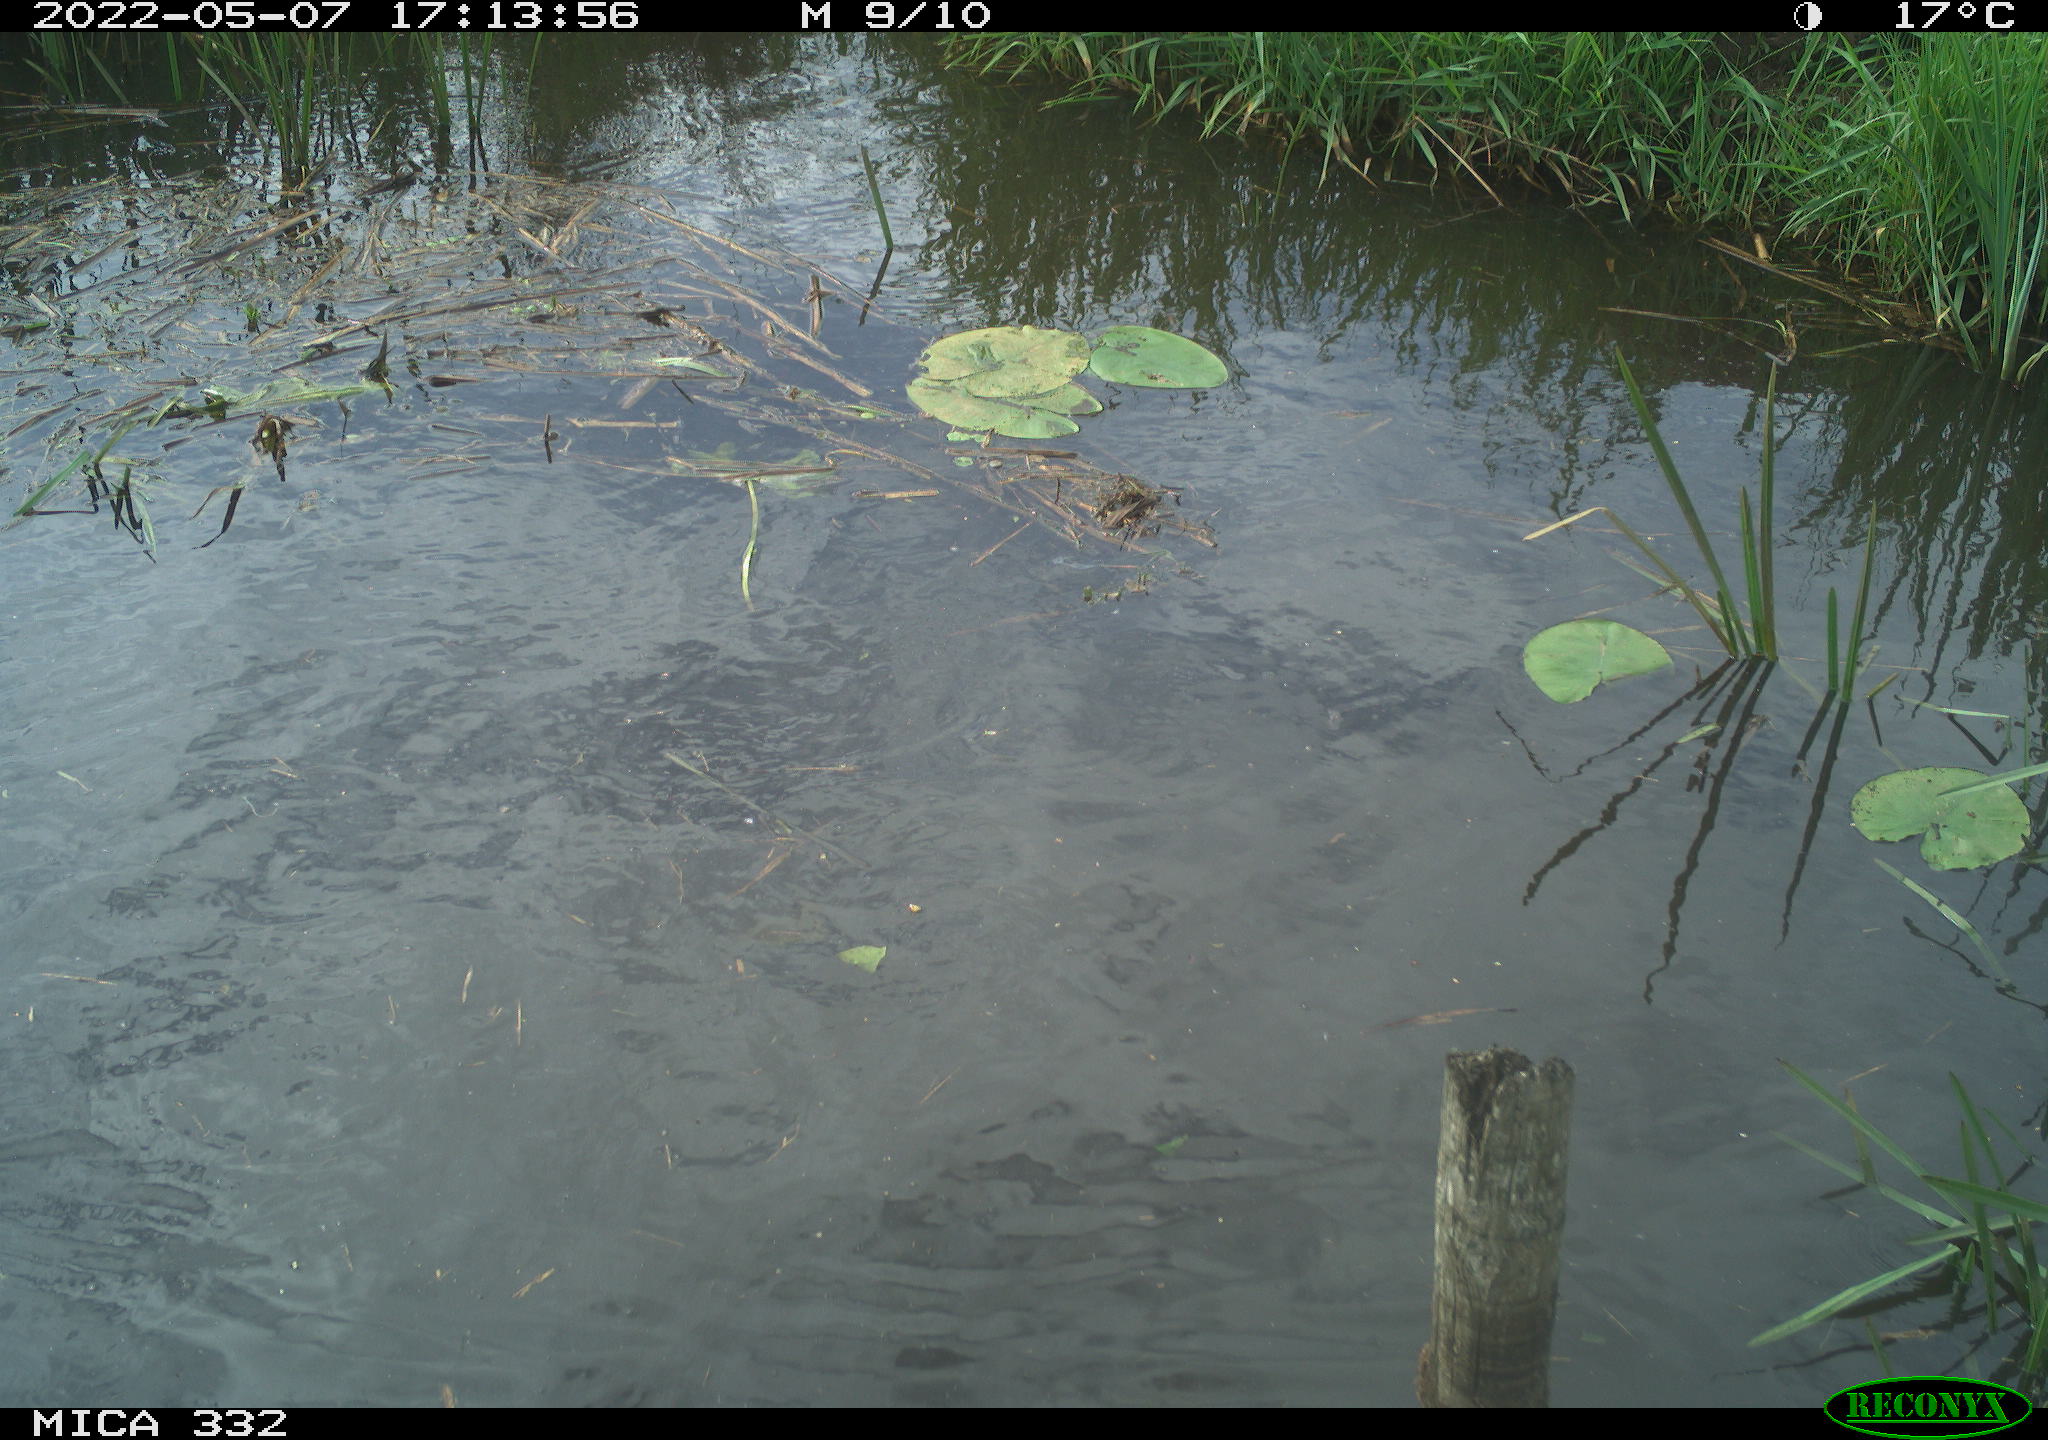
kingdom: Animalia
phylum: Chordata
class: Aves
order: Anseriformes
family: Anatidae
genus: Anas
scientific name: Anas platyrhynchos
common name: Mallard
